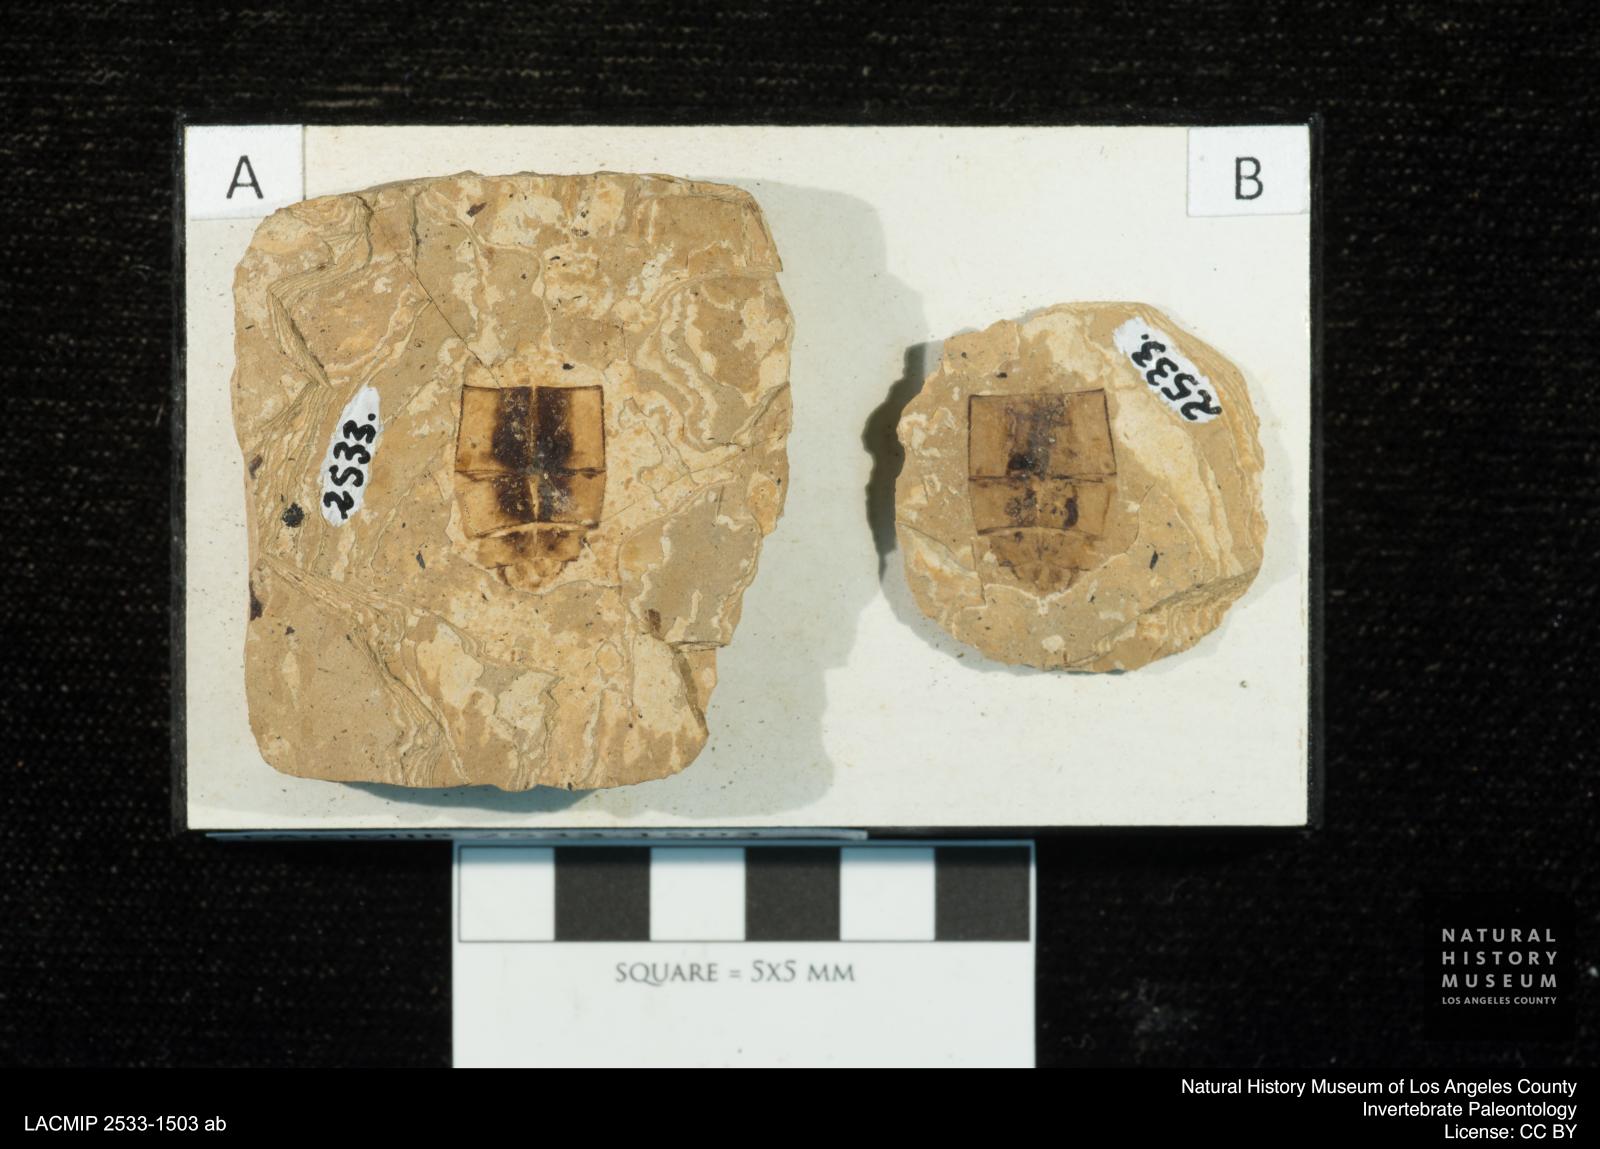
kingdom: Animalia
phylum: Arthropoda
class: Insecta
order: Odonata
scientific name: Odonata
